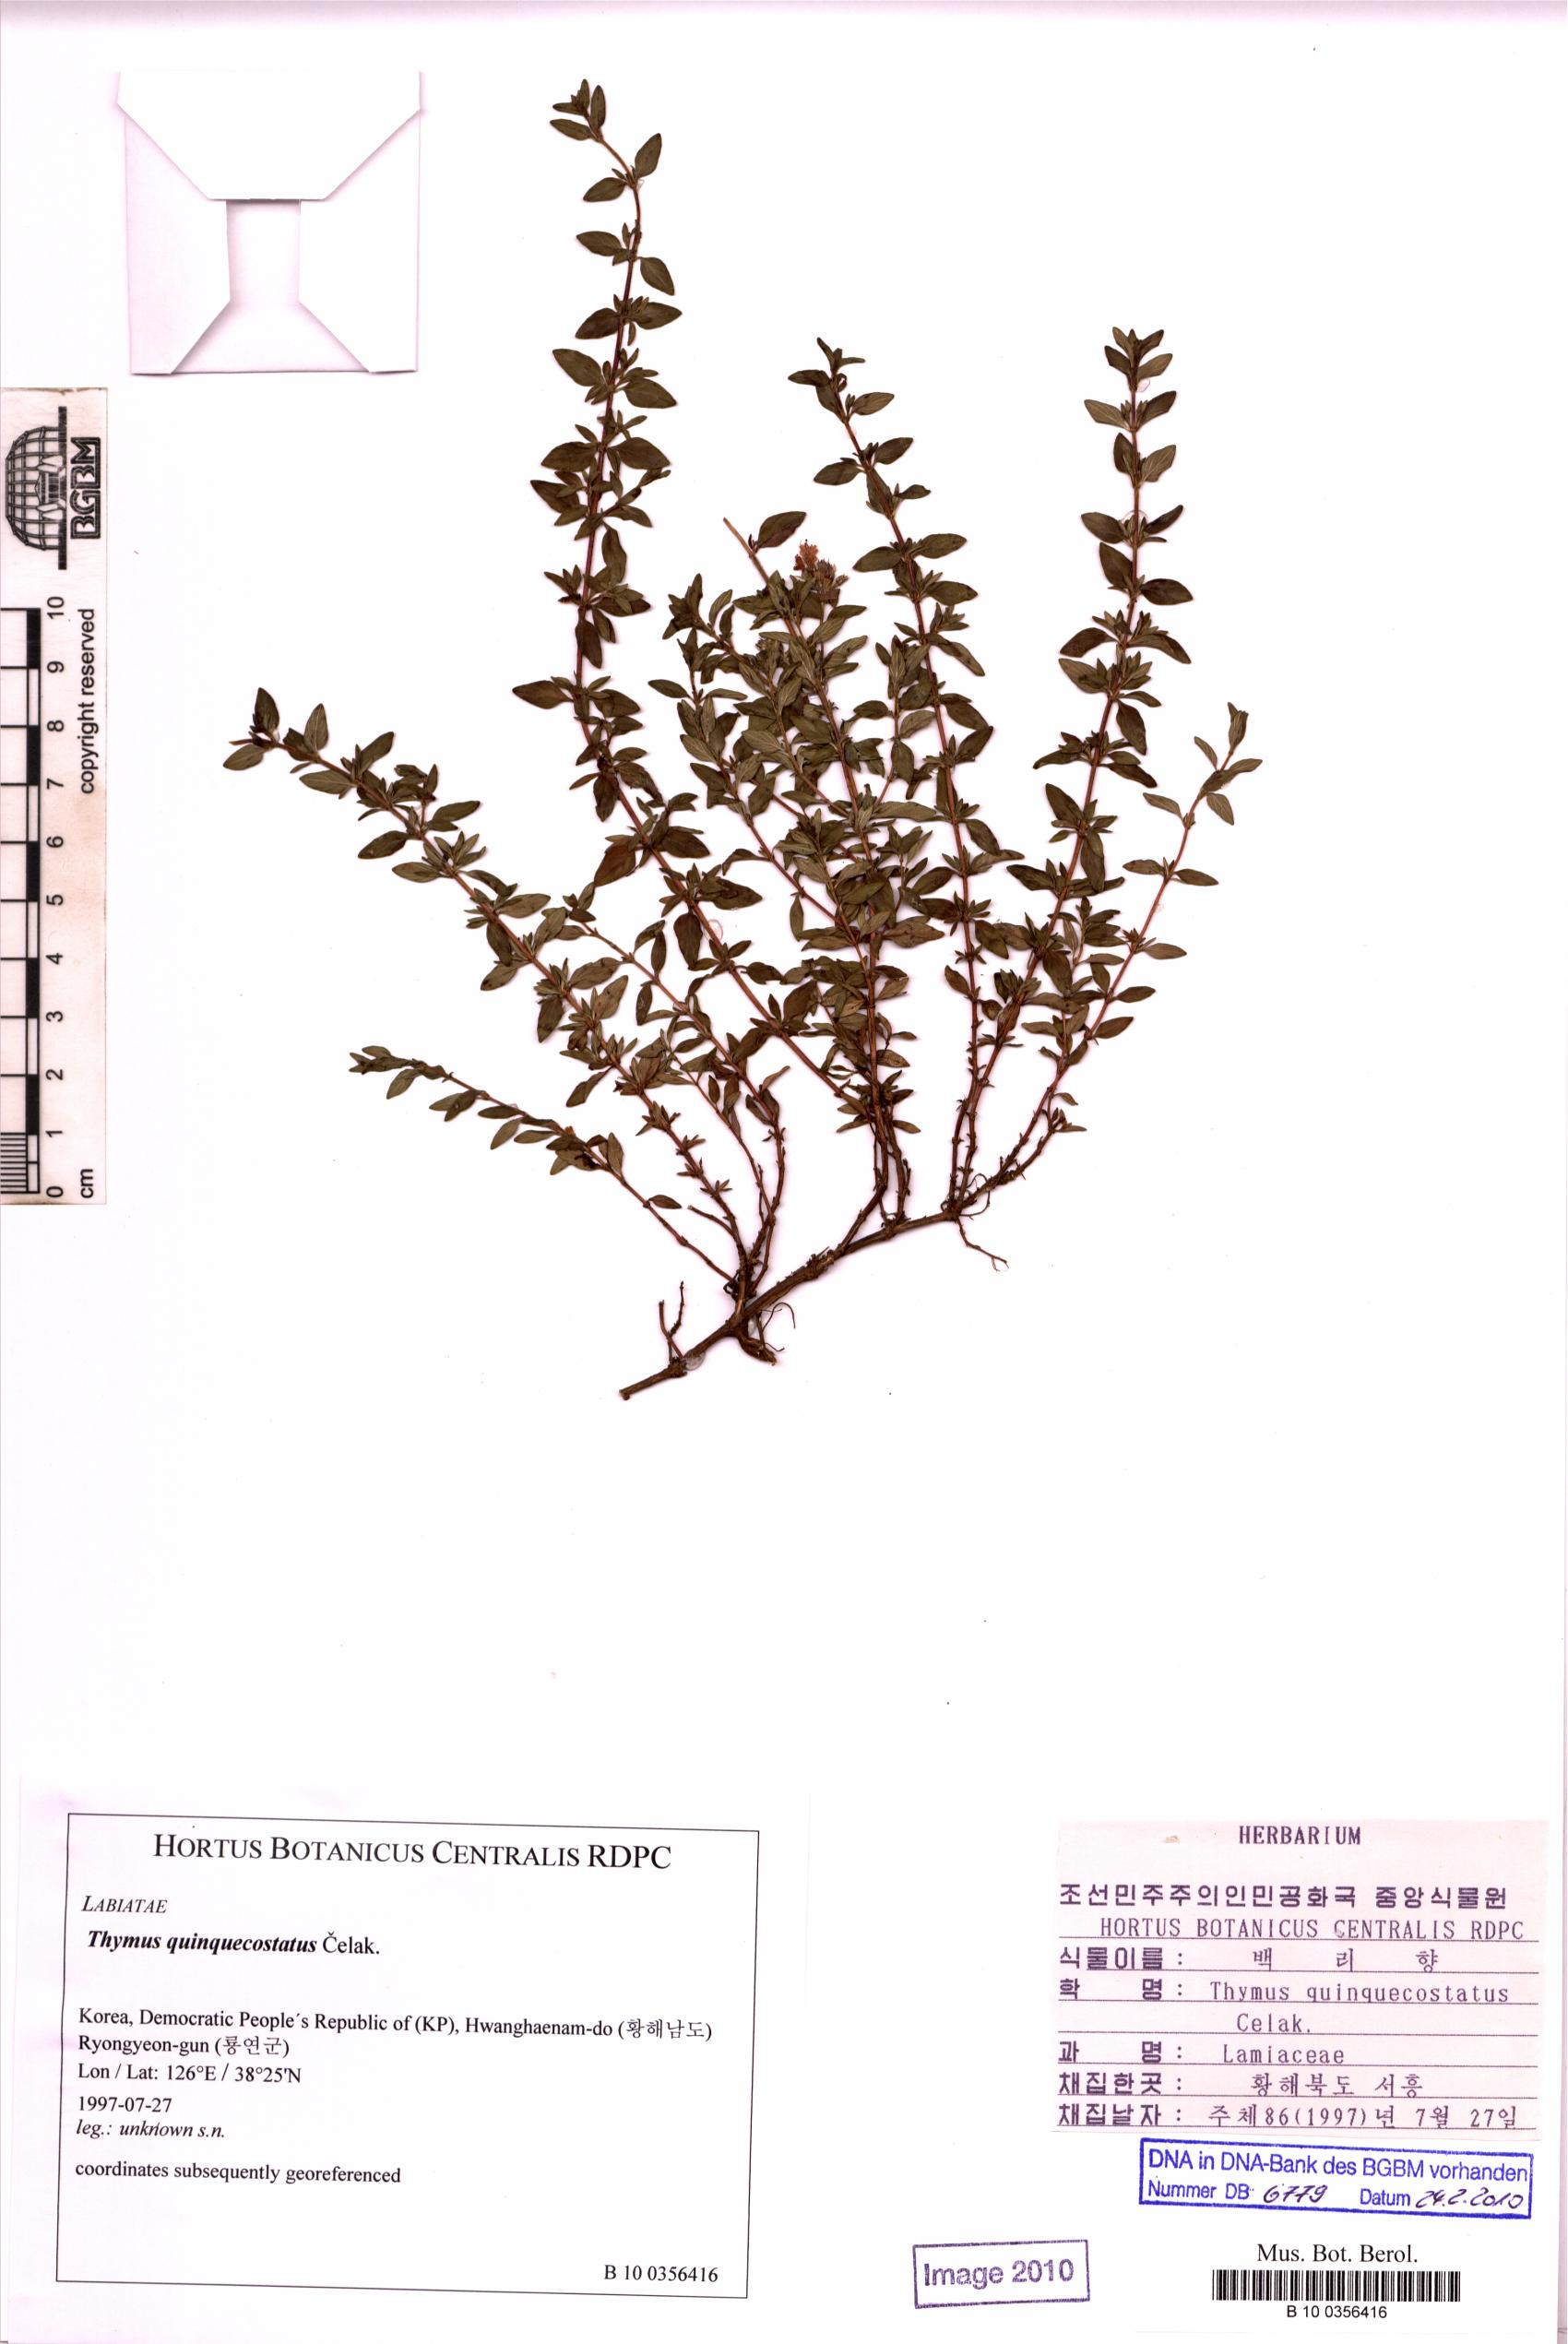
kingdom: Plantae
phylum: Tracheophyta
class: Magnoliopsida
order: Lamiales
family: Lamiaceae
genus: Thymus
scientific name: Thymus quinquecostatus
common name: Japanese thyme
